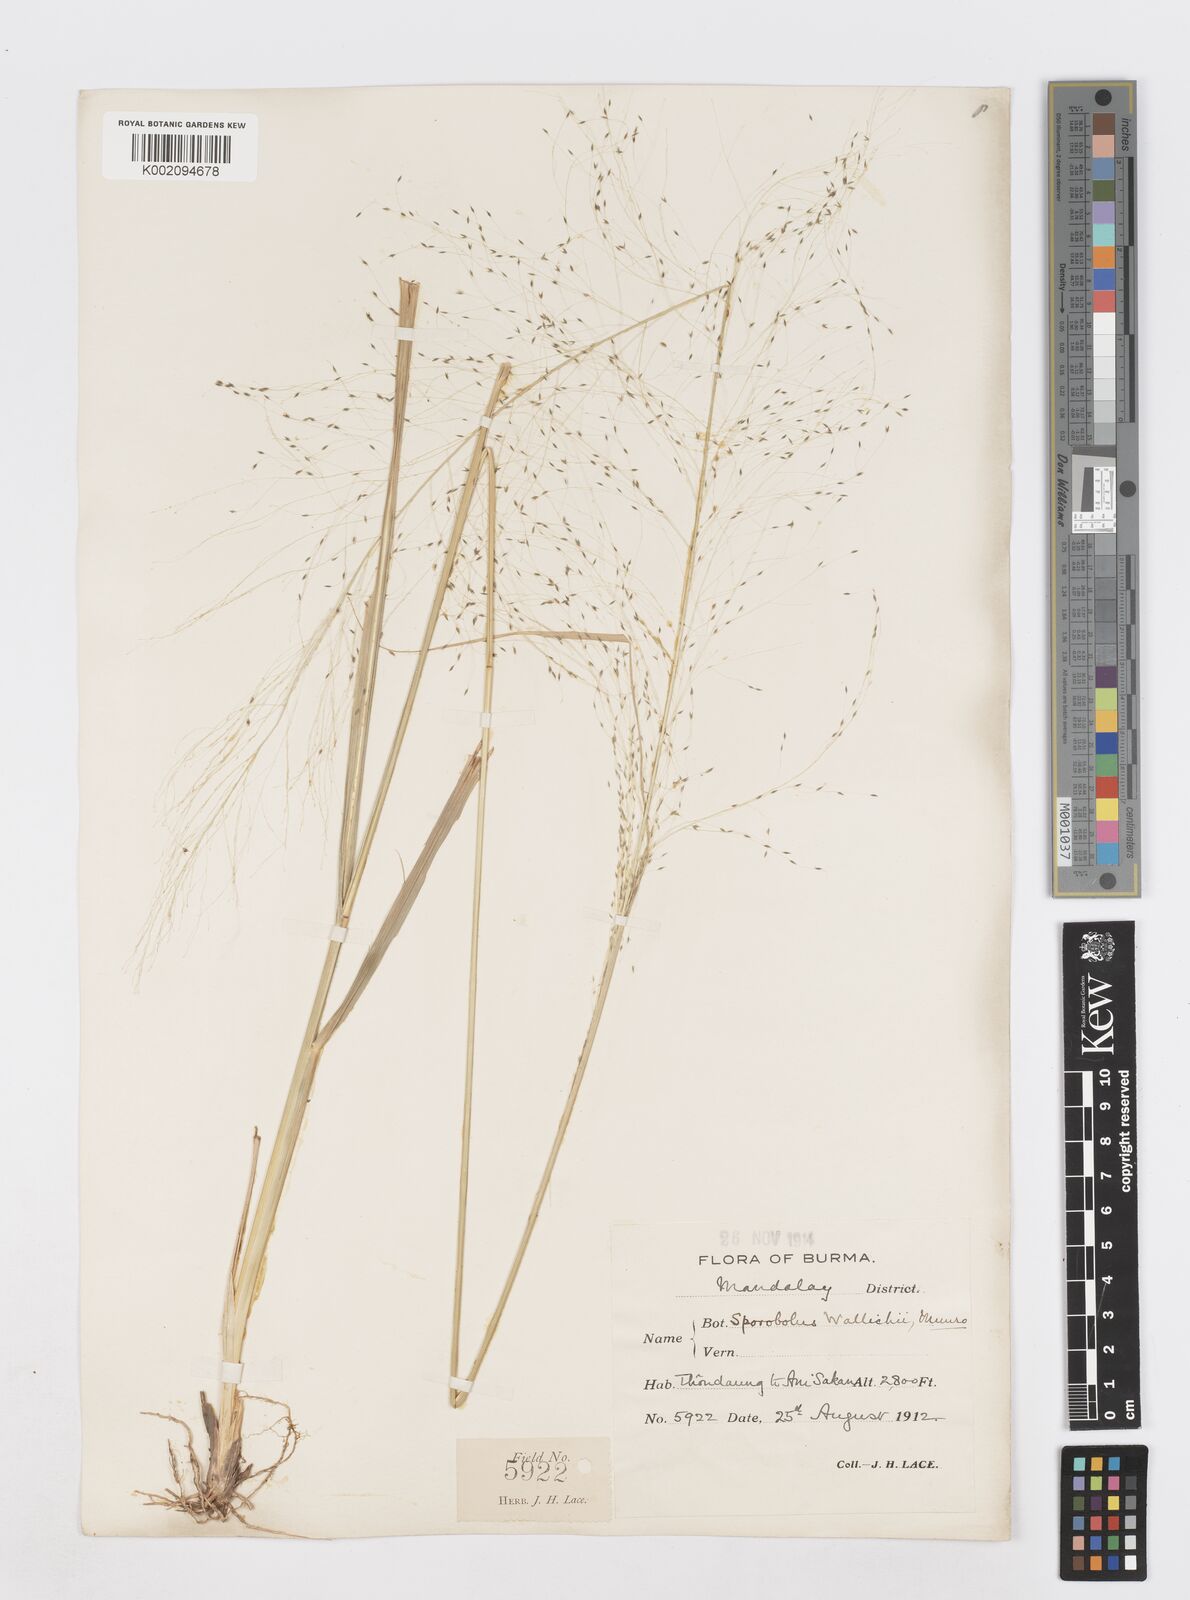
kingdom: Plantae
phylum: Tracheophyta
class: Liliopsida
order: Poales
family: Poaceae
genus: Sporobolus
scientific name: Sporobolus wallichii
